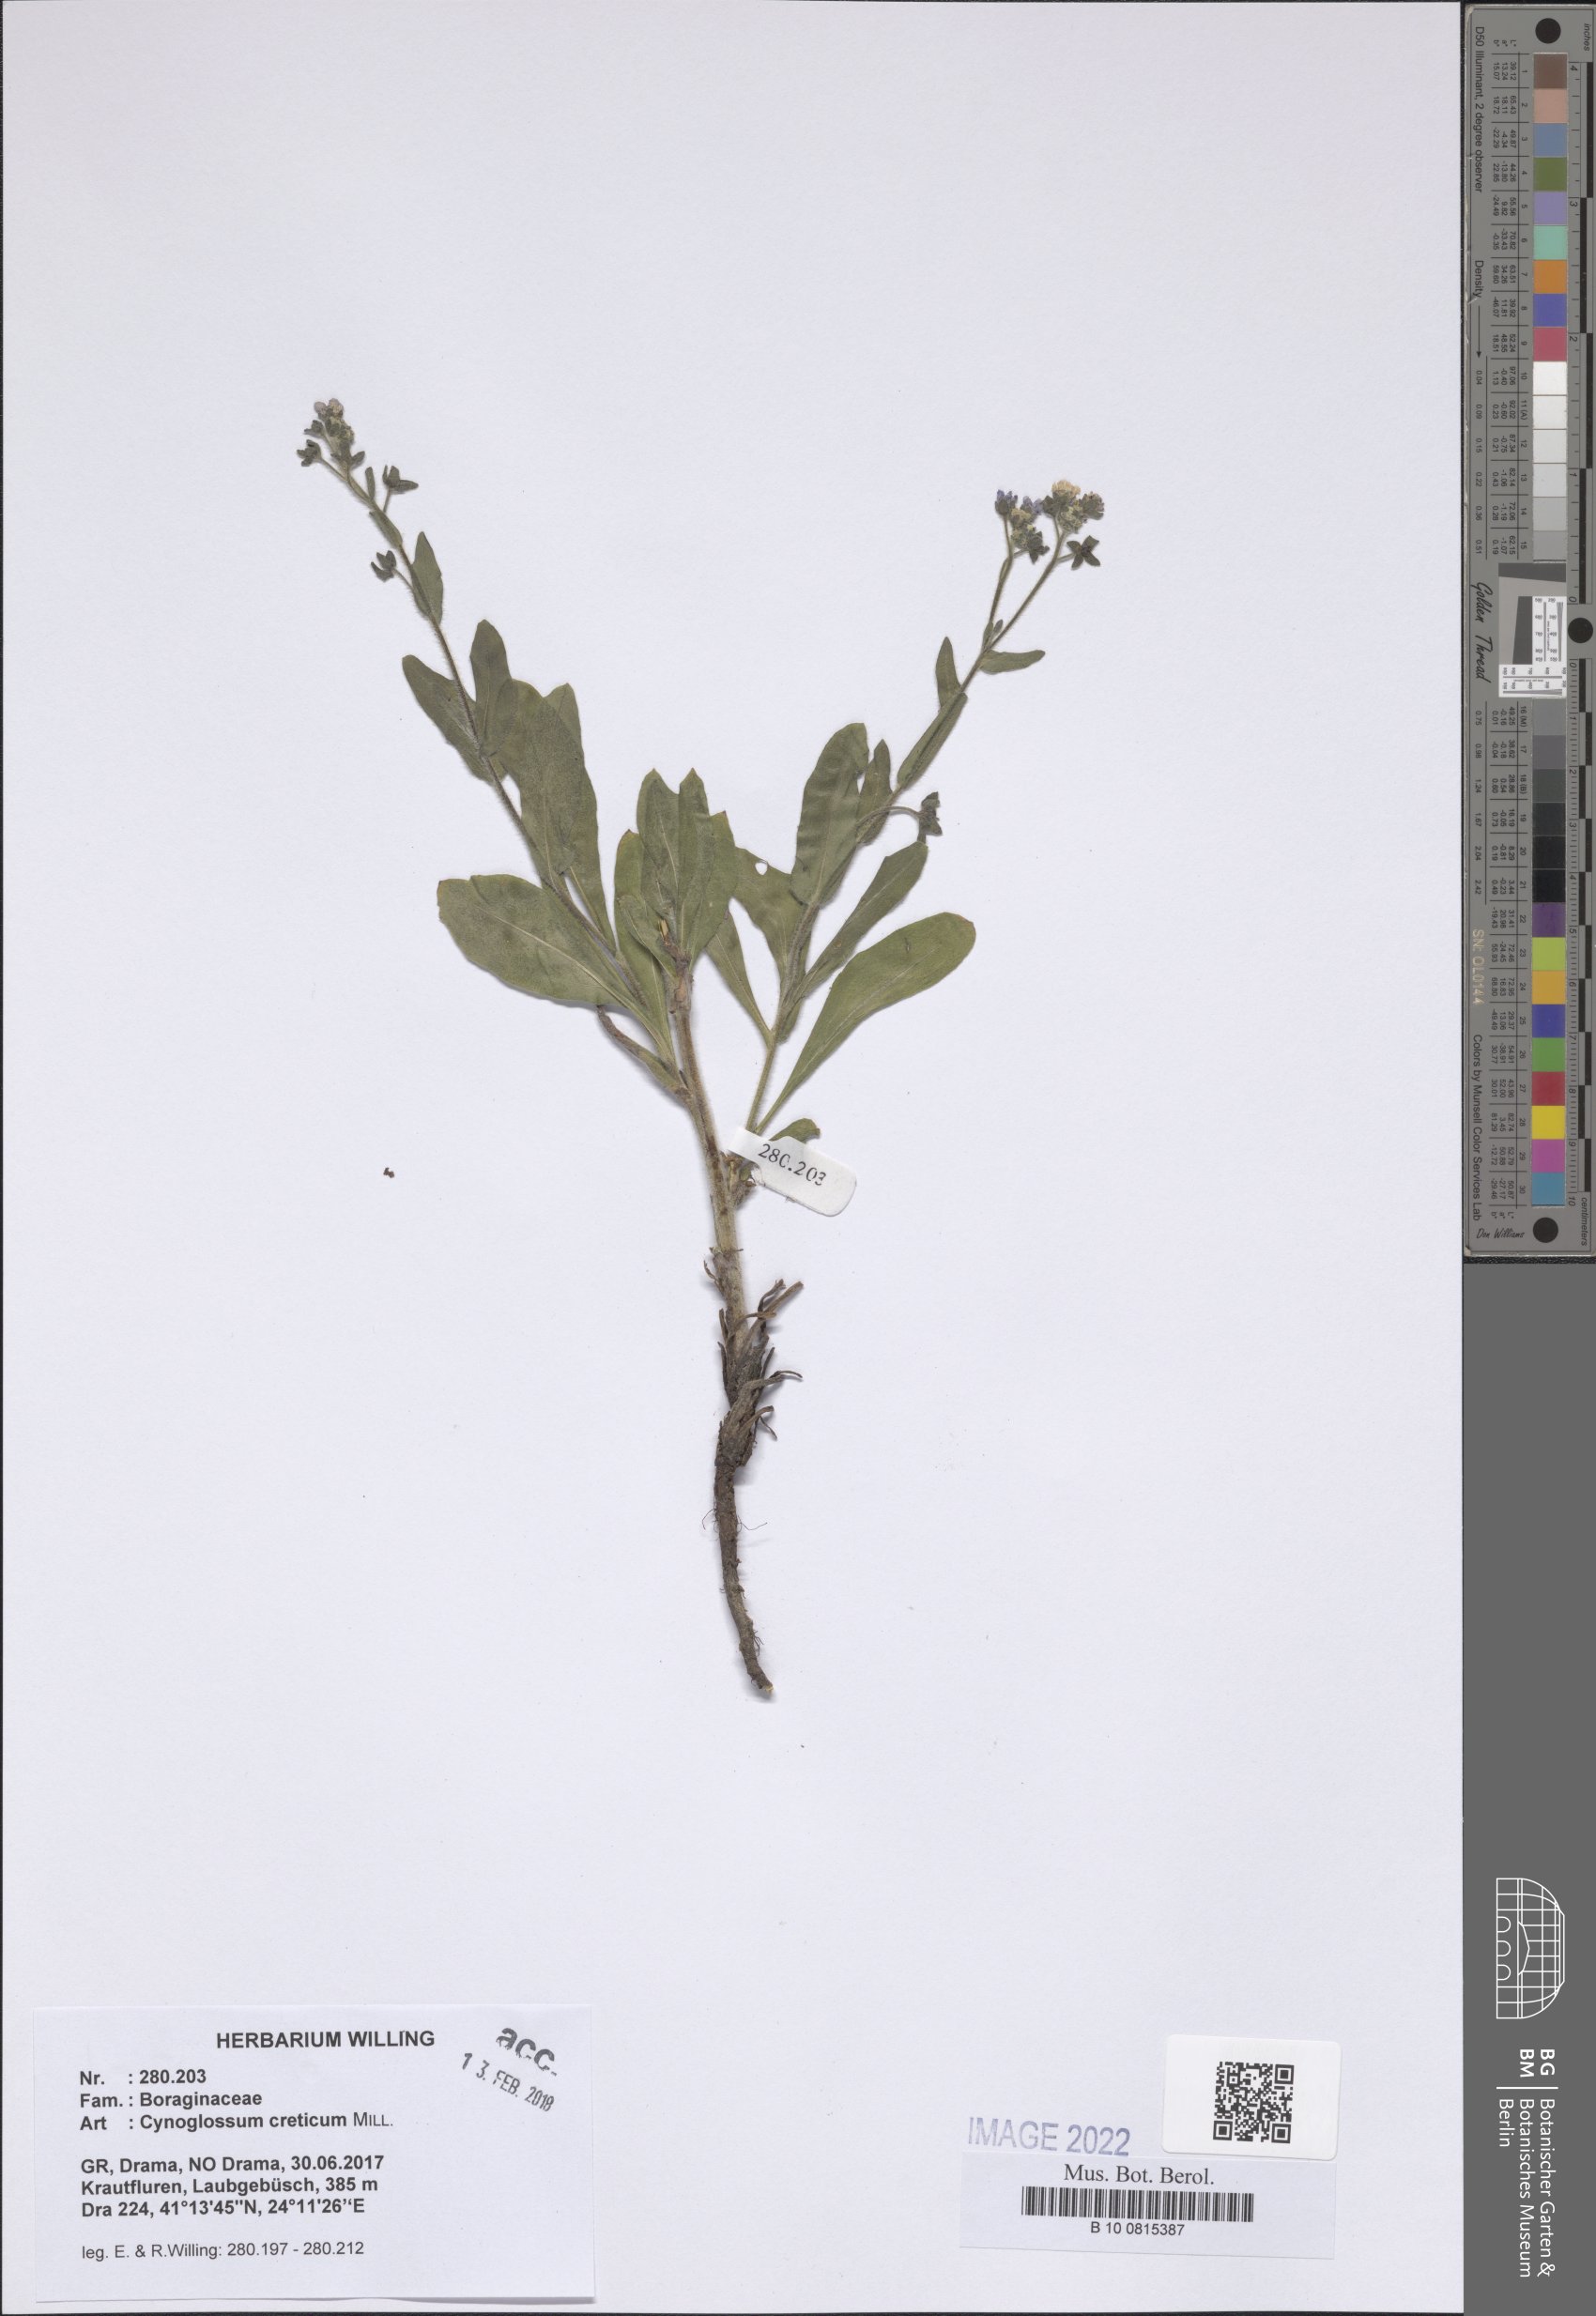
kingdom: Plantae
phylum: Tracheophyta
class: Magnoliopsida
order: Boraginales
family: Boraginaceae
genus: Cynoglossum
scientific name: Cynoglossum creticum
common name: Blue hound's tongue
